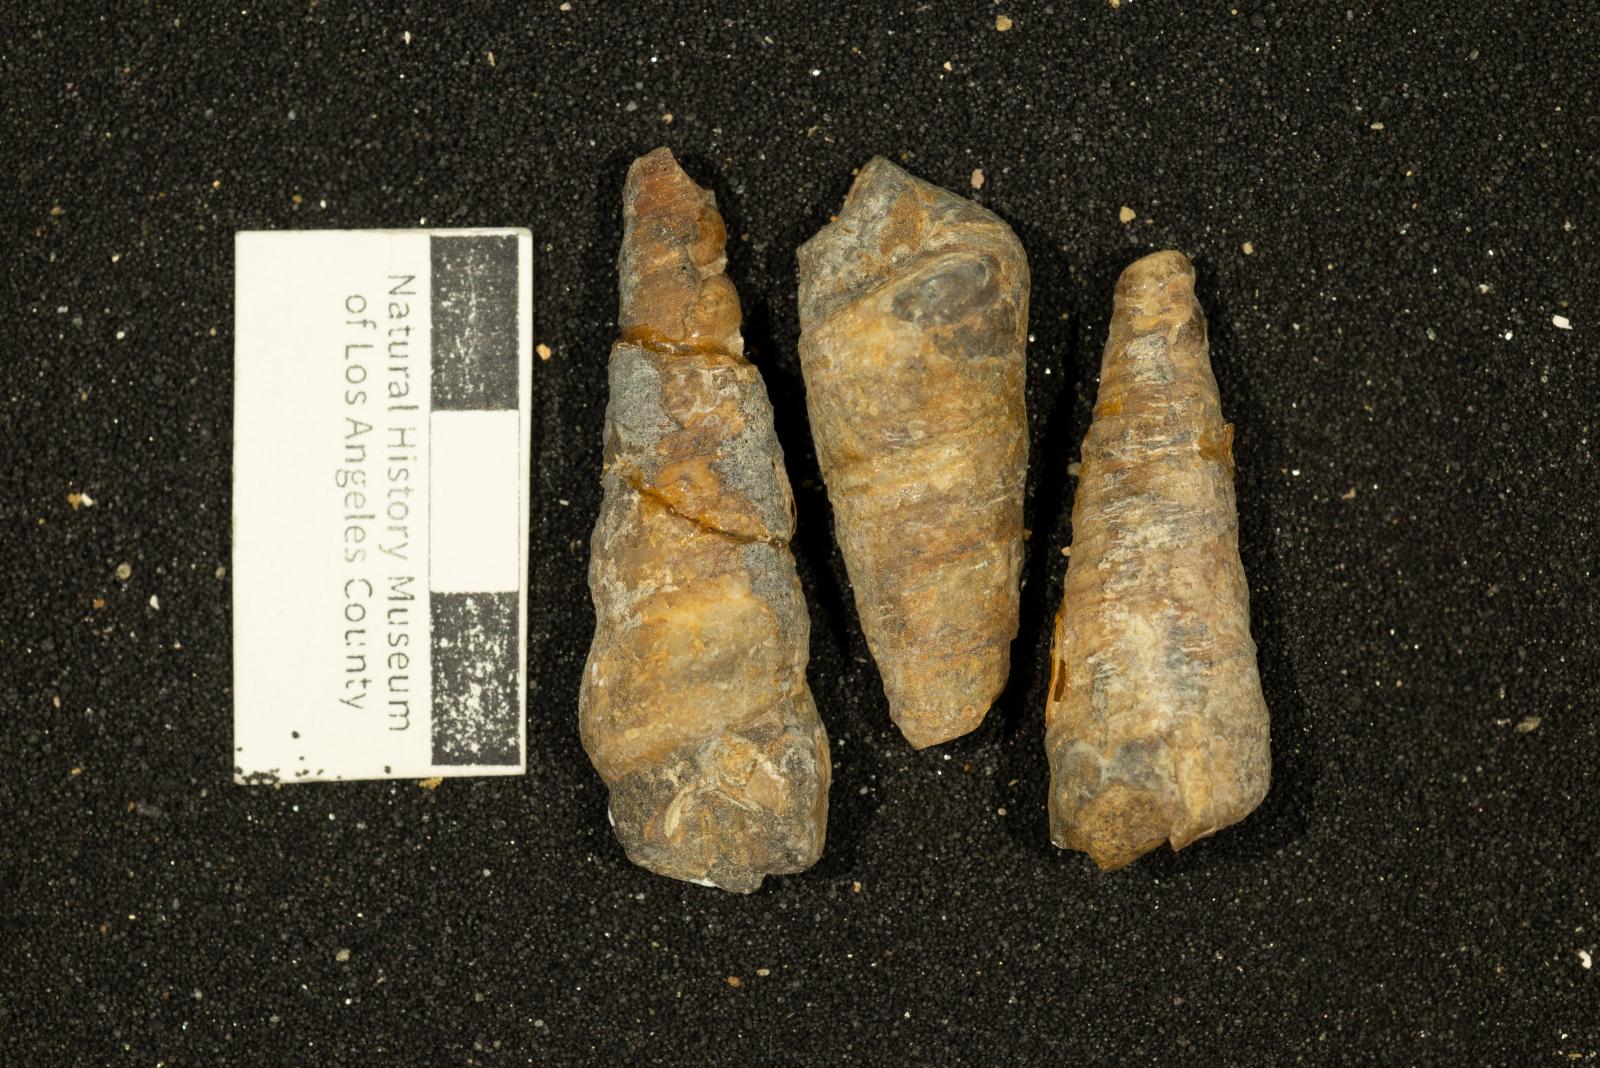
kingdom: Animalia
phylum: Mollusca
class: Gastropoda
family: Turritellidae
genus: Turritella
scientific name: Turritella hearni
